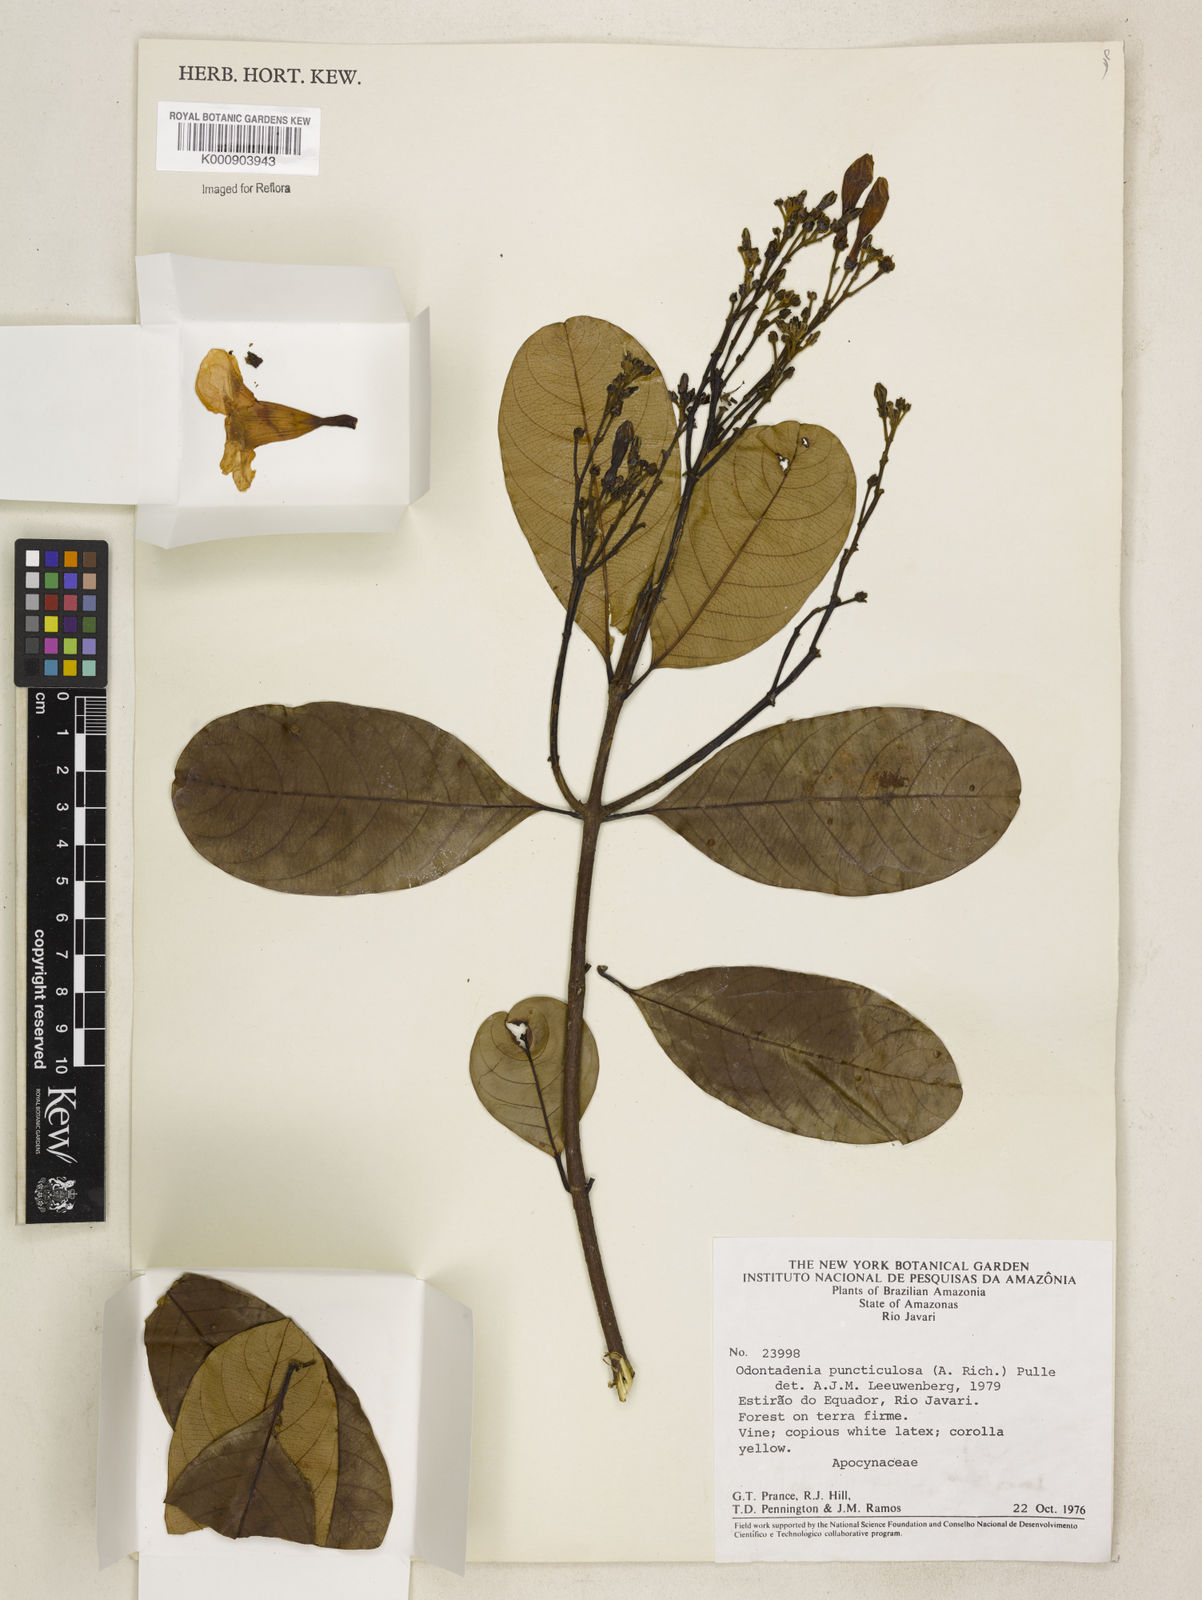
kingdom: Plantae
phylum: Tracheophyta
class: Magnoliopsida
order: Gentianales
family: Apocynaceae
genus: Odontadenia
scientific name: Odontadenia puncticulosa
